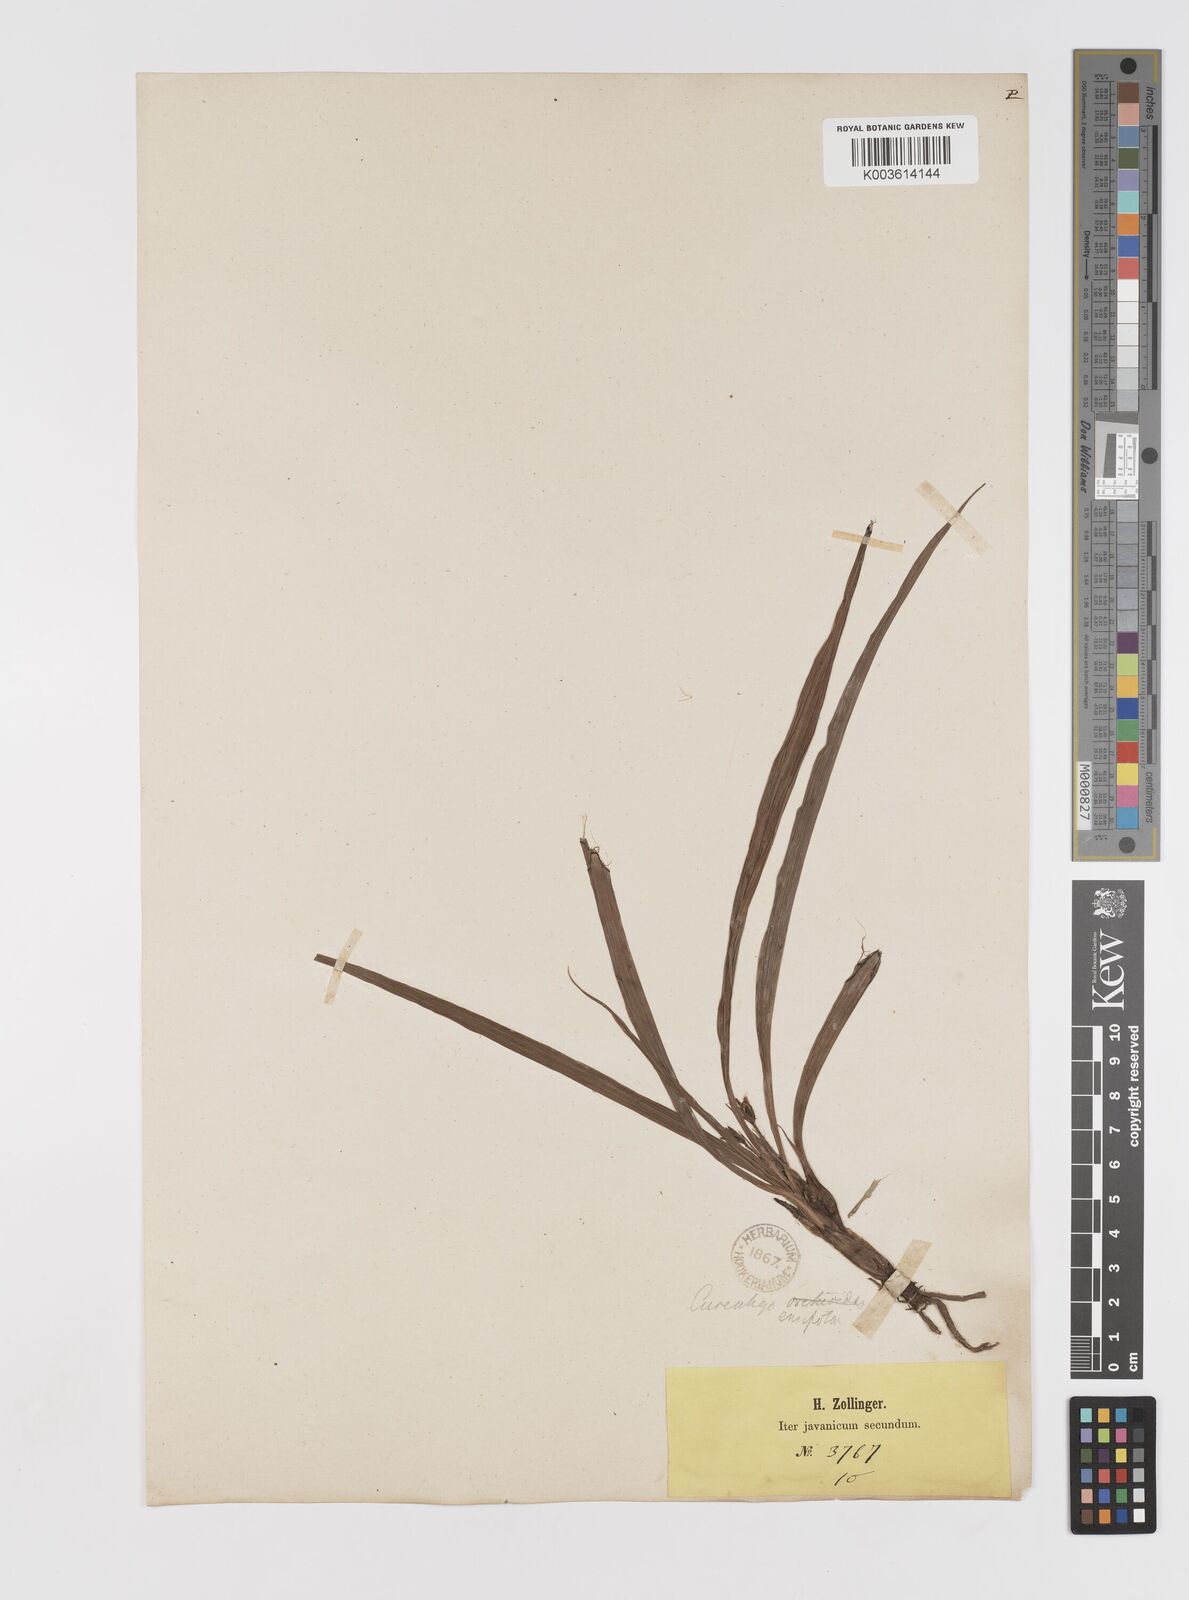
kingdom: Plantae
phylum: Tracheophyta
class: Liliopsida
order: Asparagales
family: Hypoxidaceae
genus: Curculigo
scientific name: Curculigo orchioides
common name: Golden eye-grass
